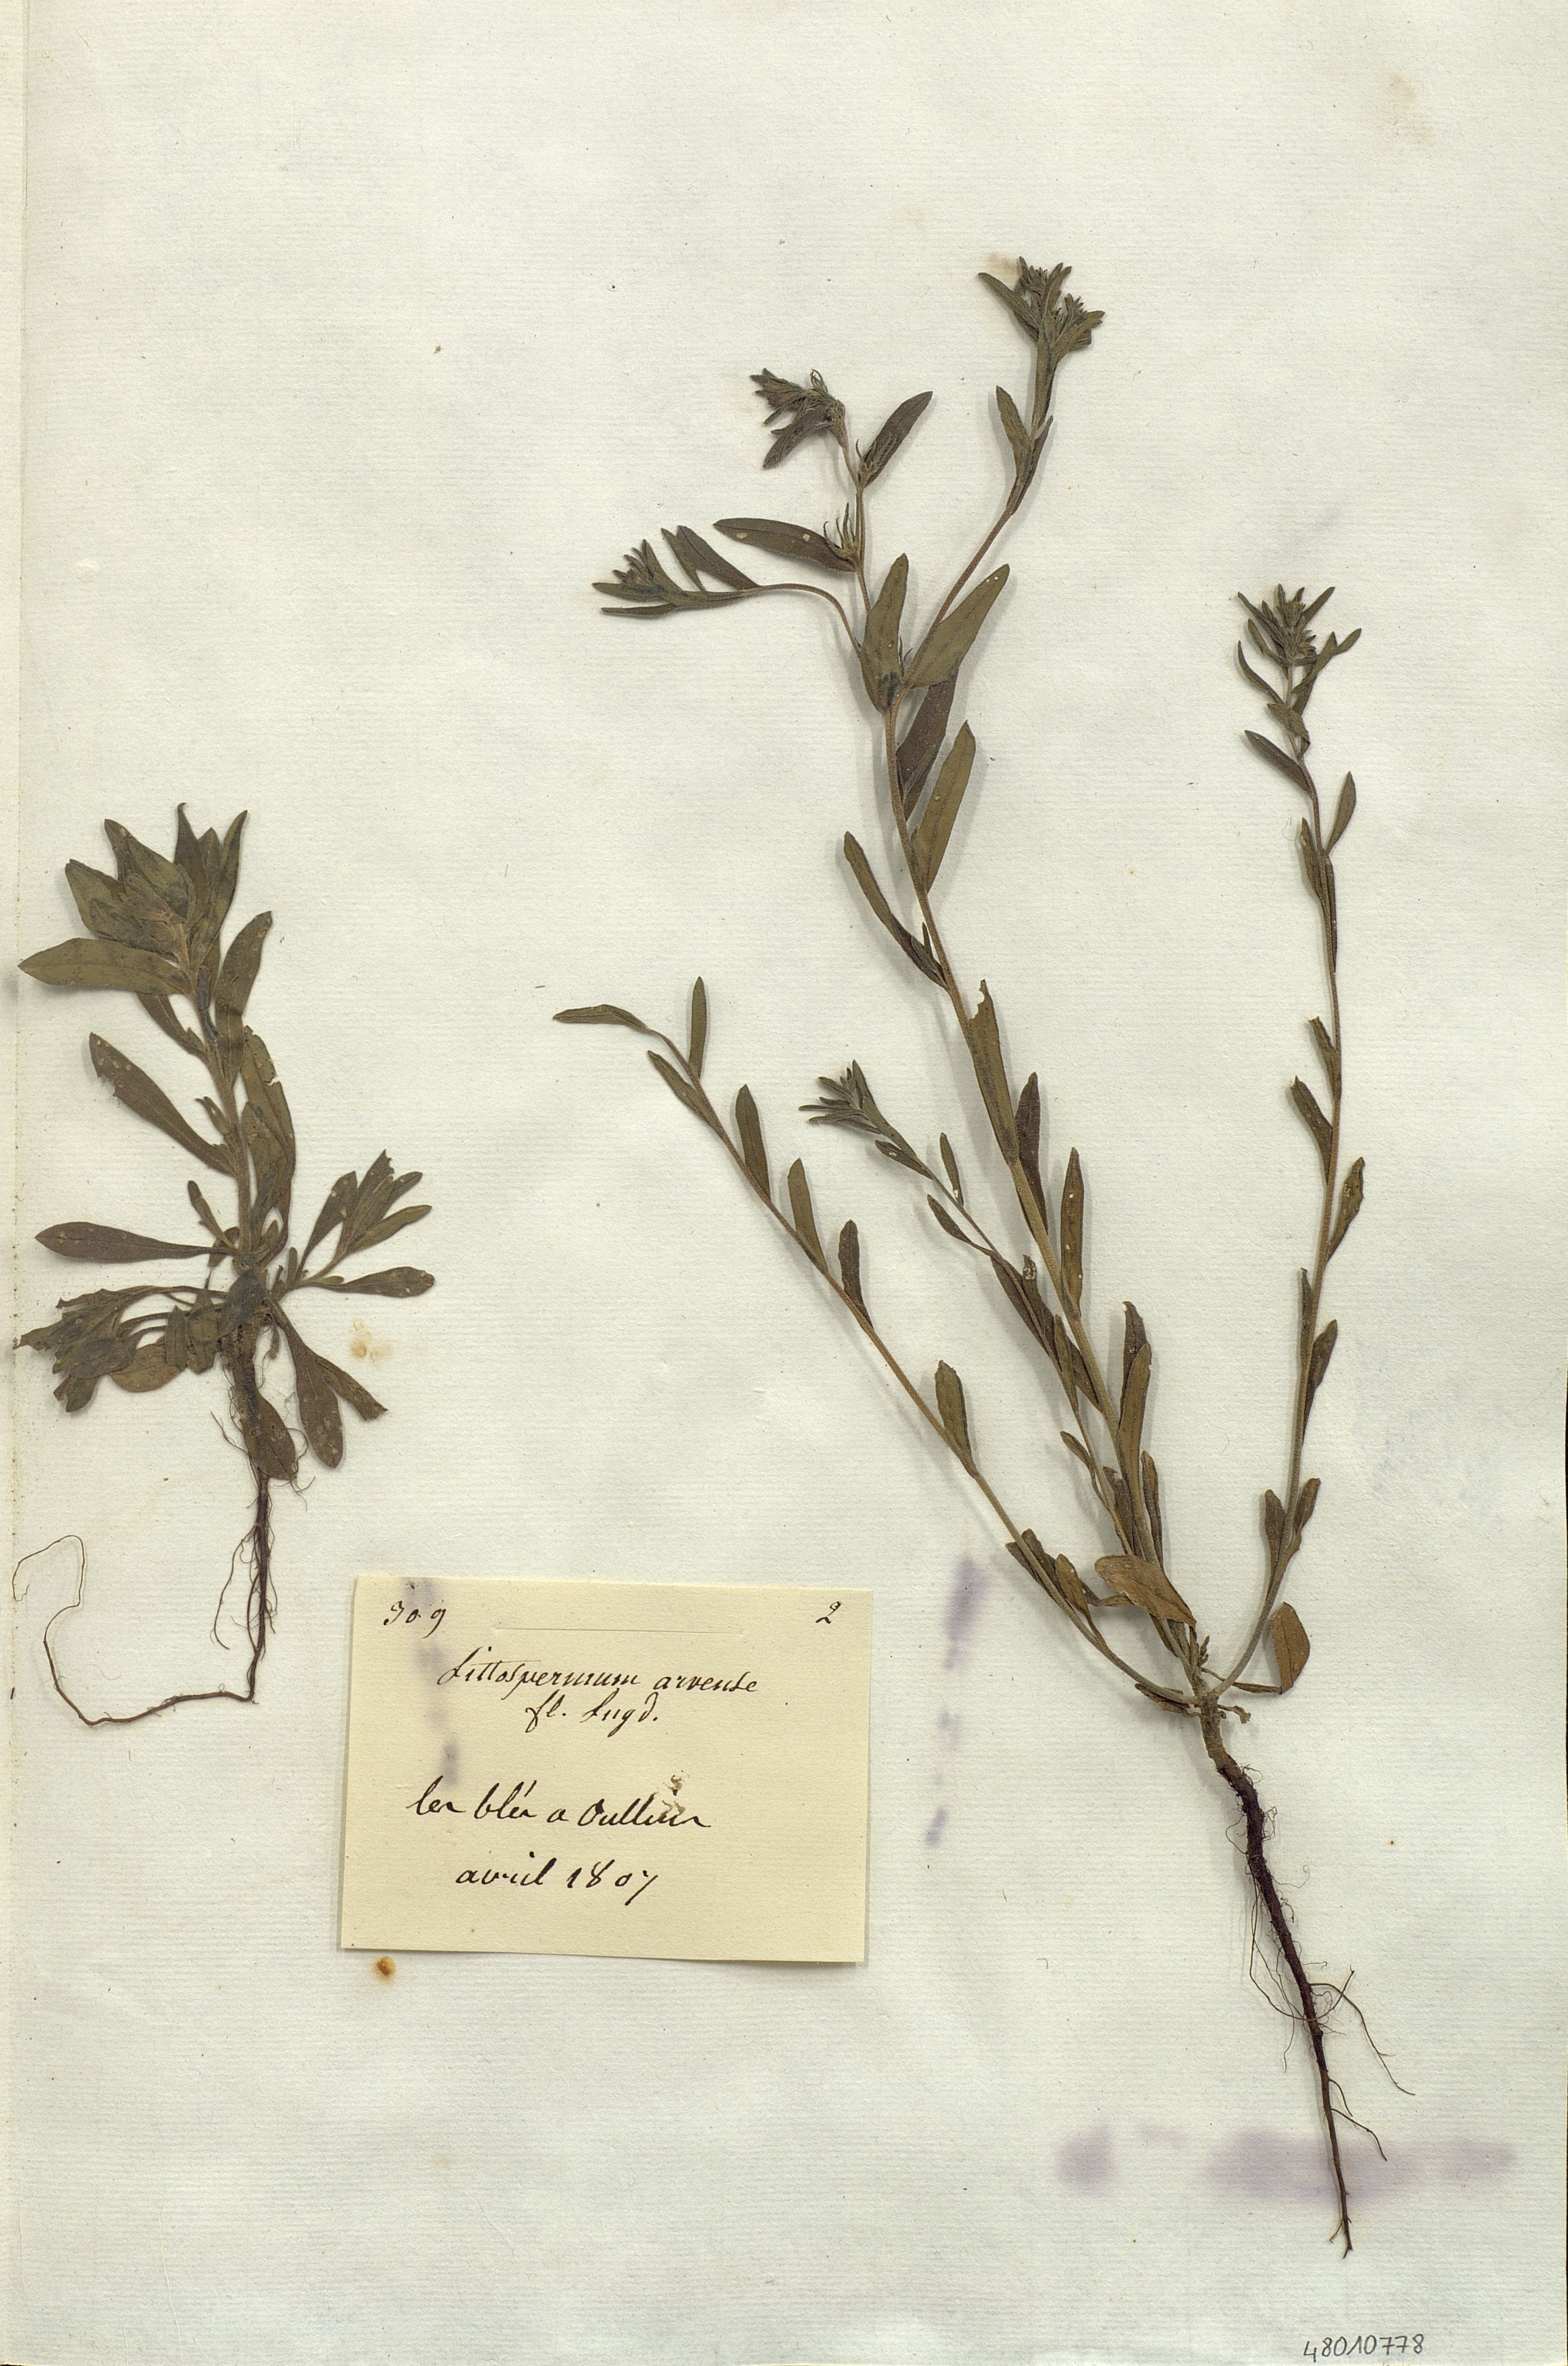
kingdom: Plantae
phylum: Tracheophyta
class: Magnoliopsida
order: Boraginales
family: Boraginaceae
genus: Lithospermum
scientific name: Lithospermum erythrorhizon
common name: Purple gromwell
